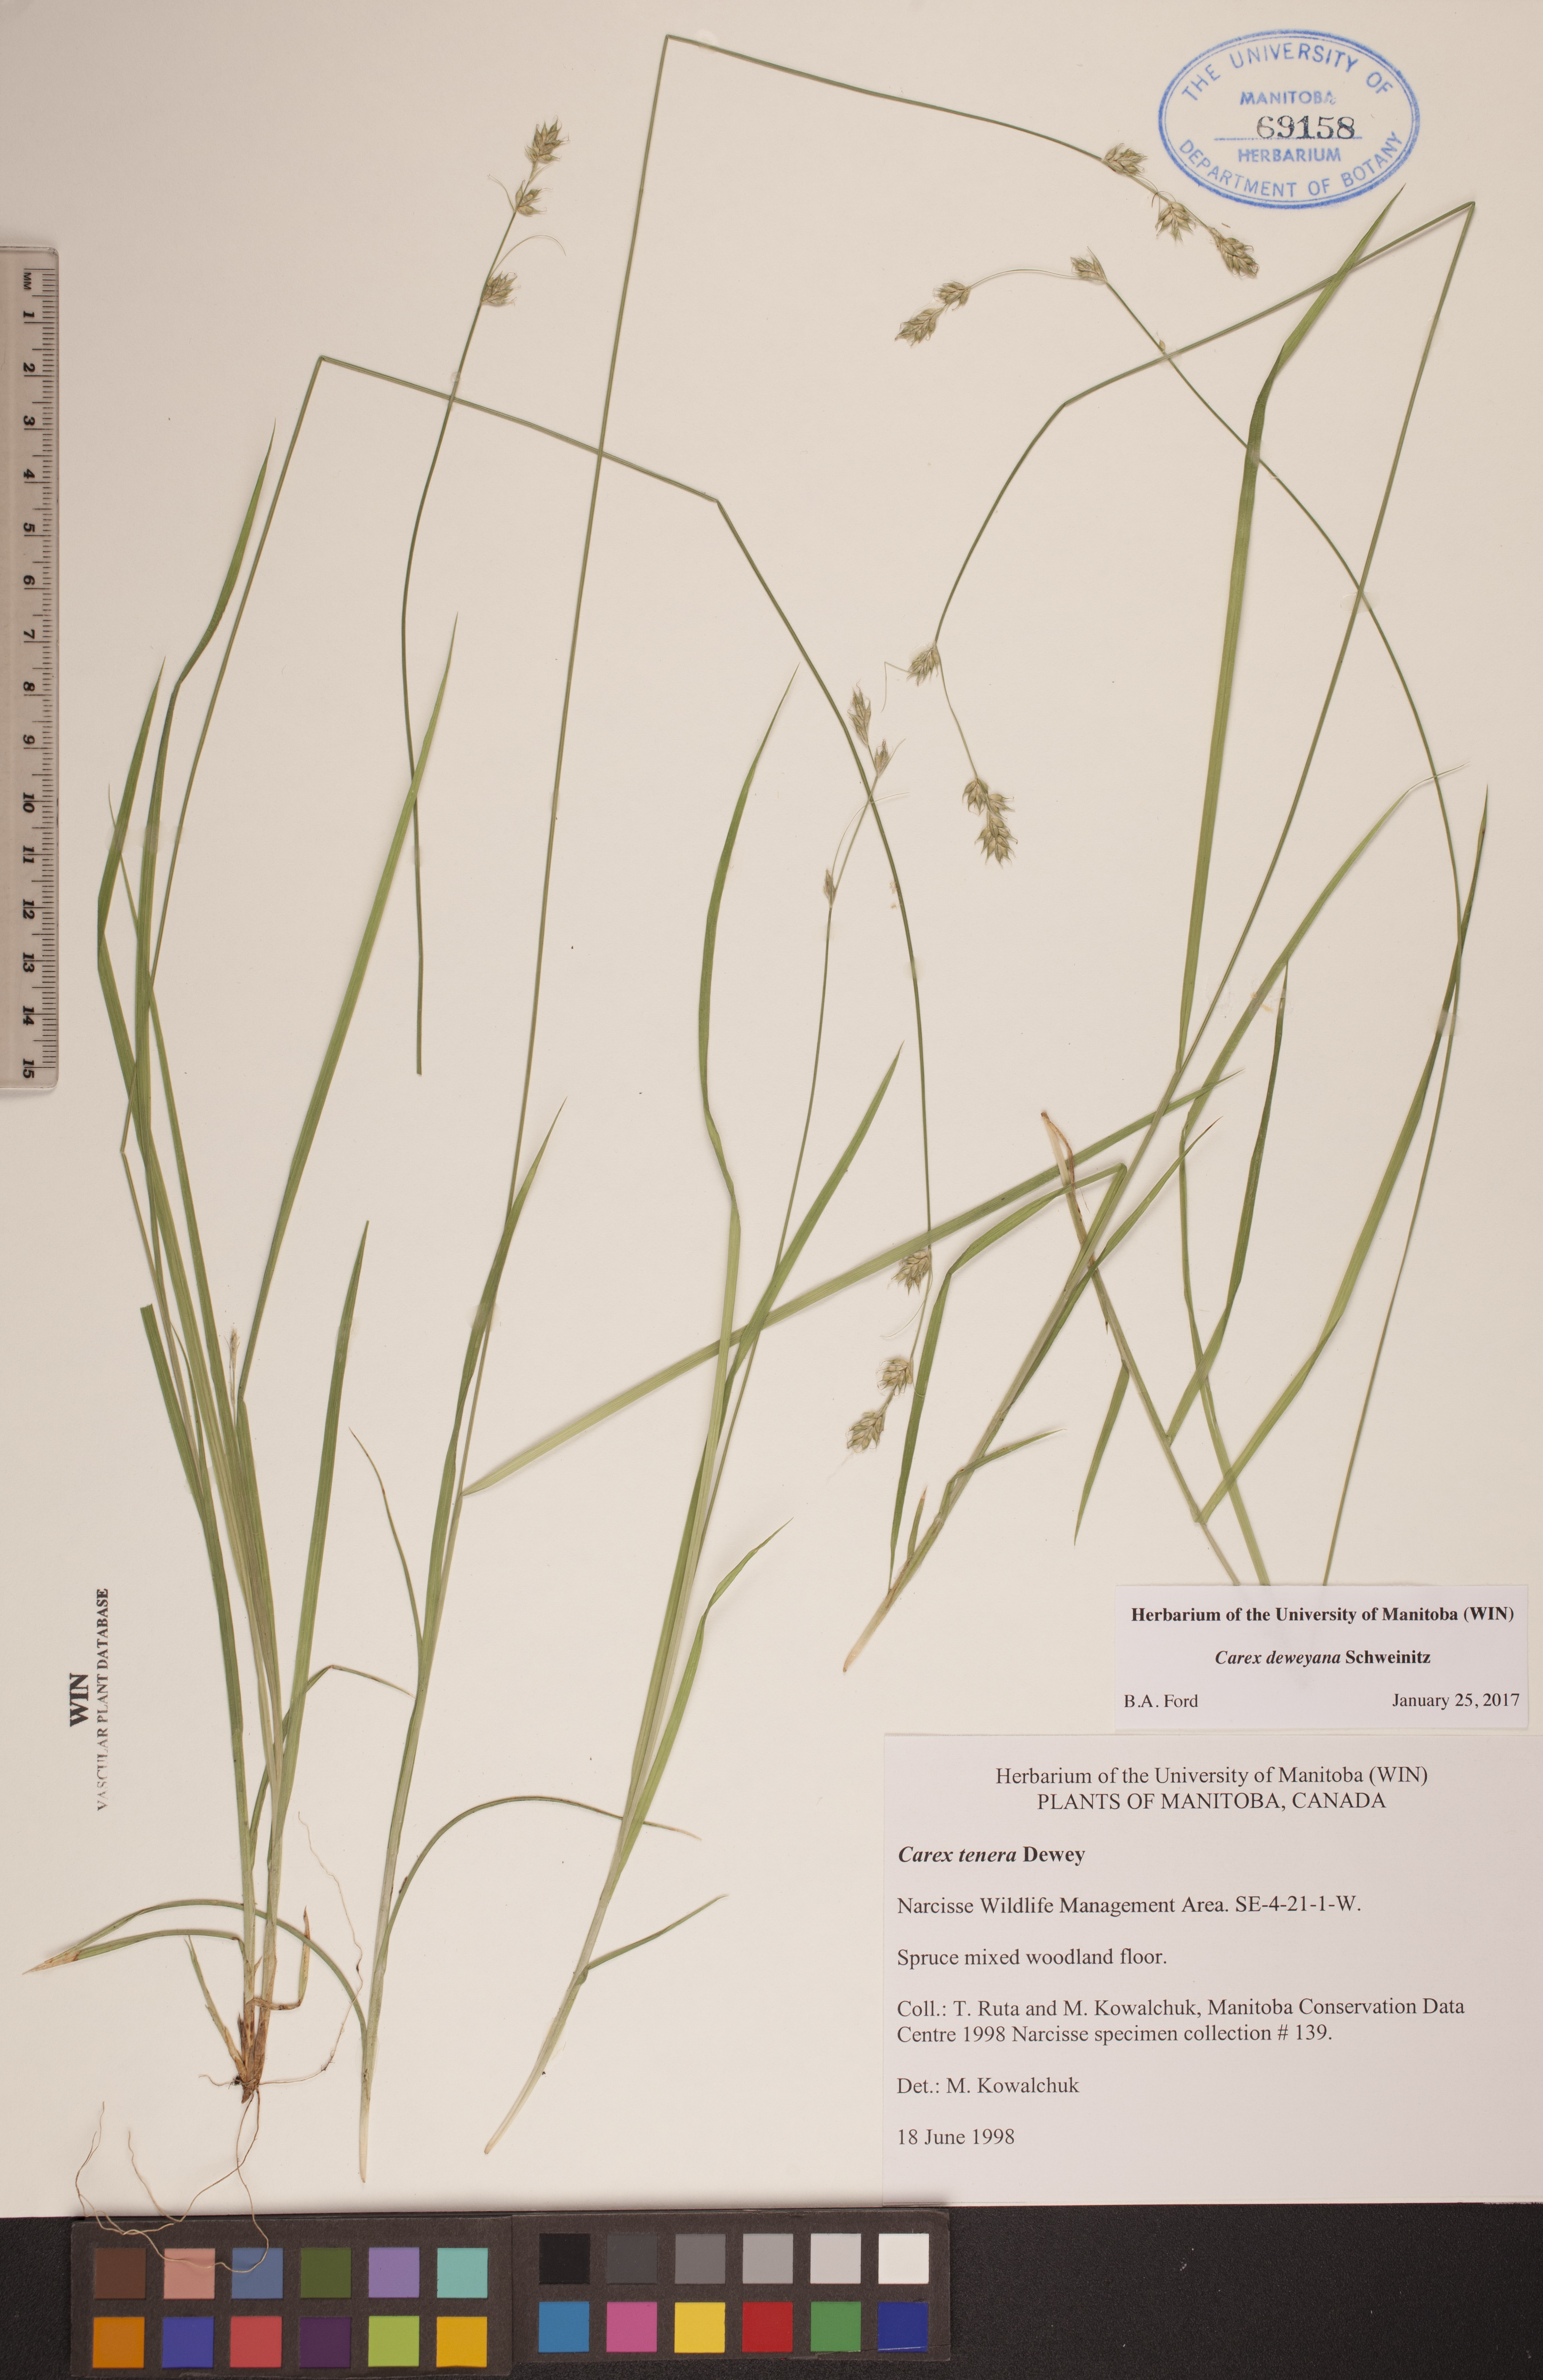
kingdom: Plantae
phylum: Tracheophyta
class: Liliopsida
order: Poales
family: Cyperaceae
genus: Carex
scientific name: Carex deweyana
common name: Dewey's sedge
